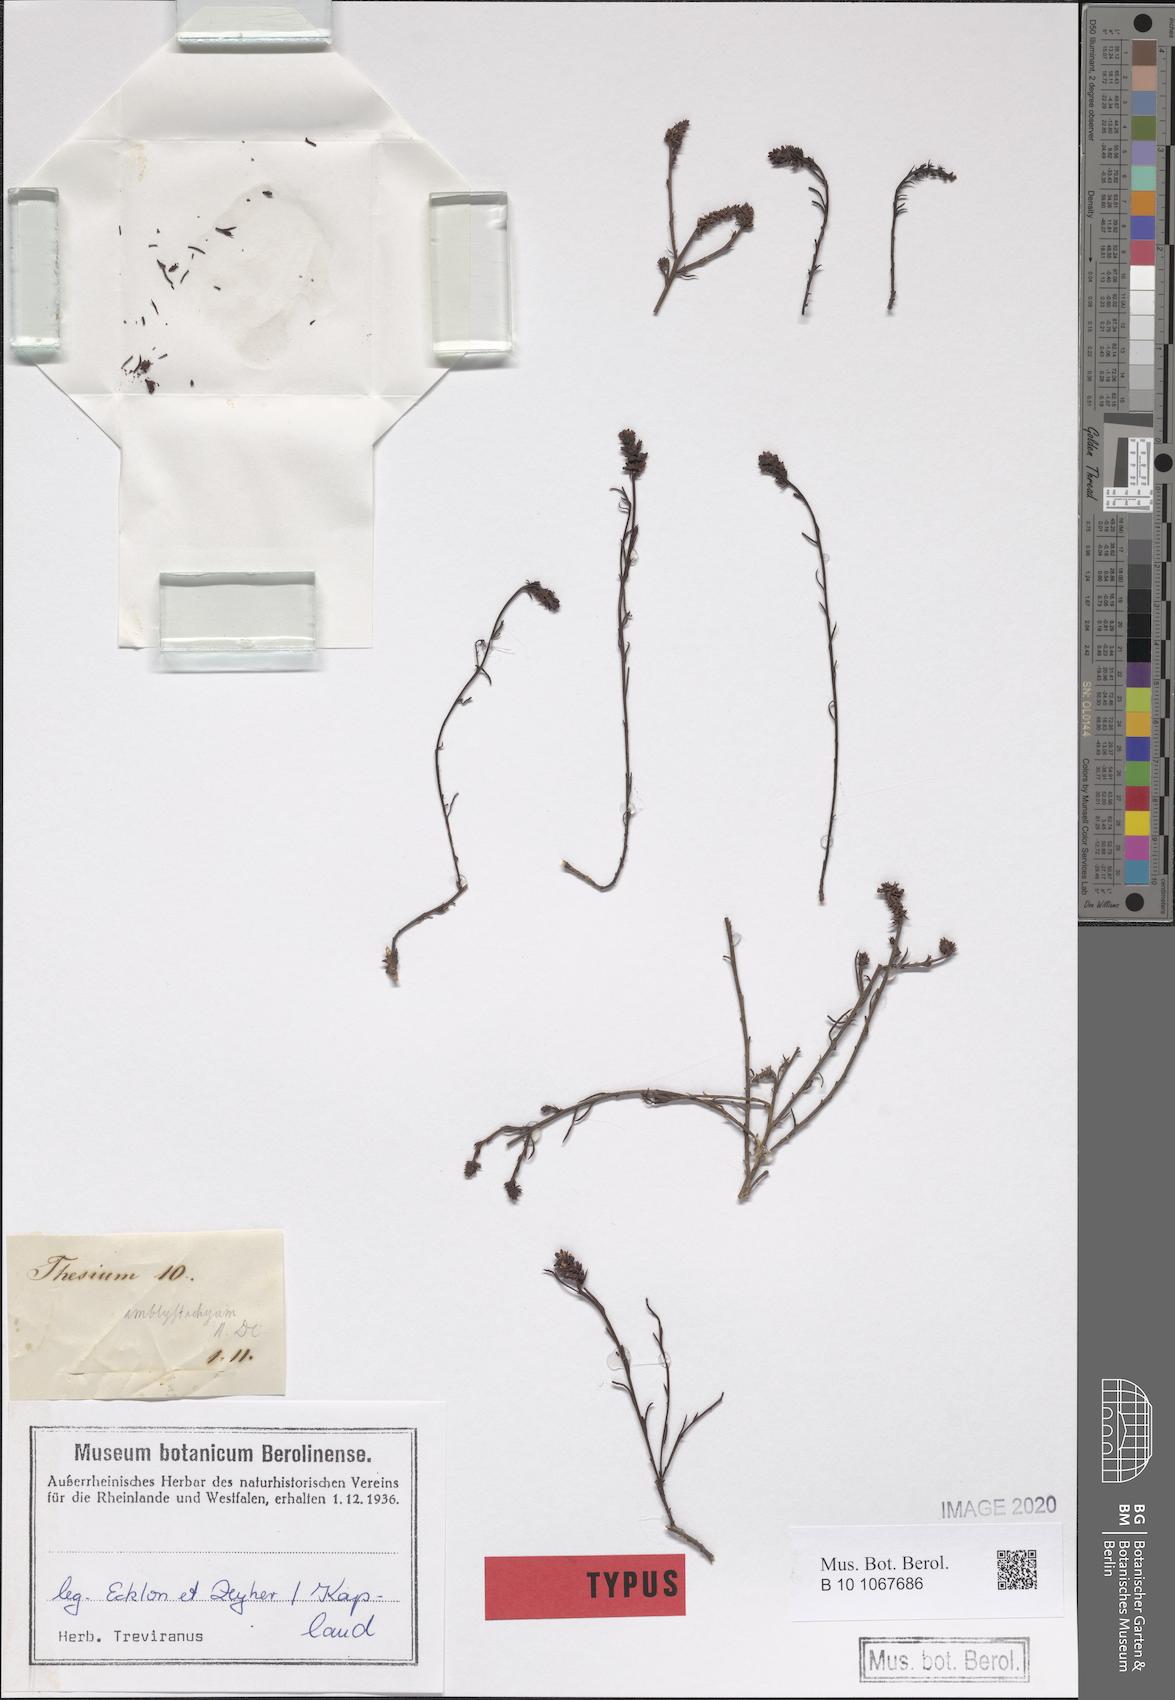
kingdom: Plantae
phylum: Tracheophyta
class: Magnoliopsida
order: Santalales
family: Thesiaceae
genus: Thesium
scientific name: Thesium frisea
